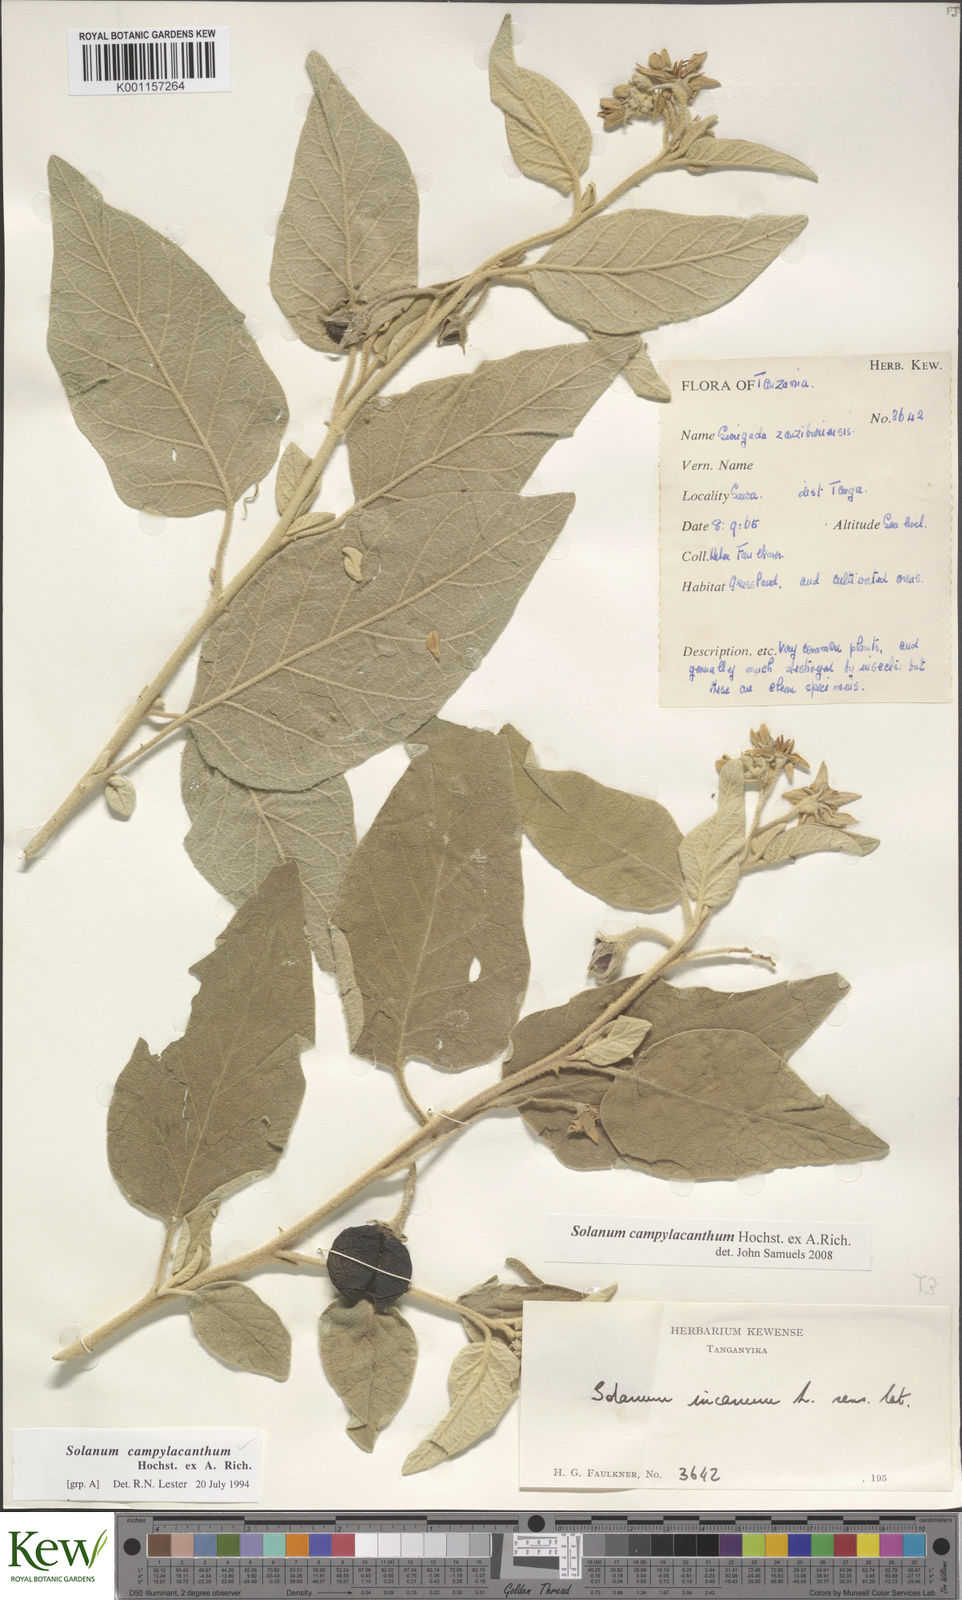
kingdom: Plantae
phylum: Tracheophyta
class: Magnoliopsida
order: Solanales
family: Solanaceae
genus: Solanum
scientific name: Solanum campylacanthum
